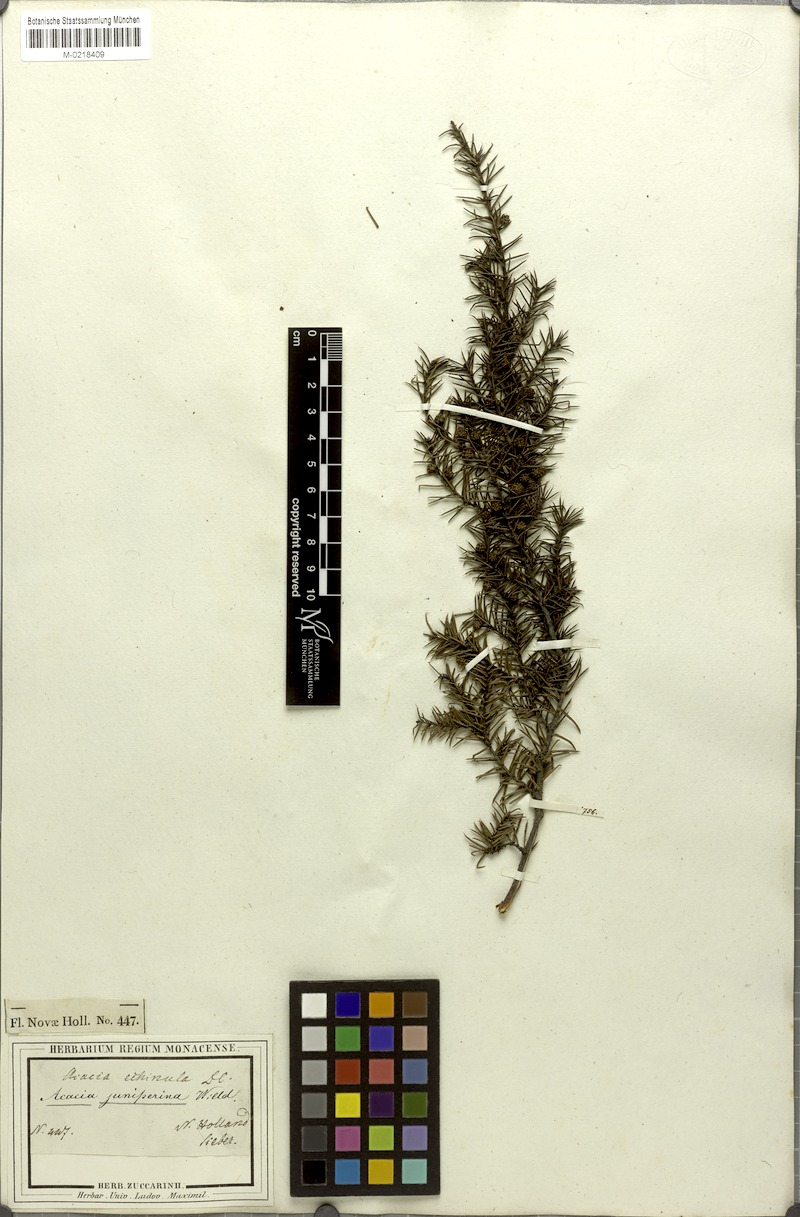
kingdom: Plantae
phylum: Tracheophyta
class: Magnoliopsida
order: Fabales
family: Fabaceae
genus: Acacia
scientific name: Acacia echinula
